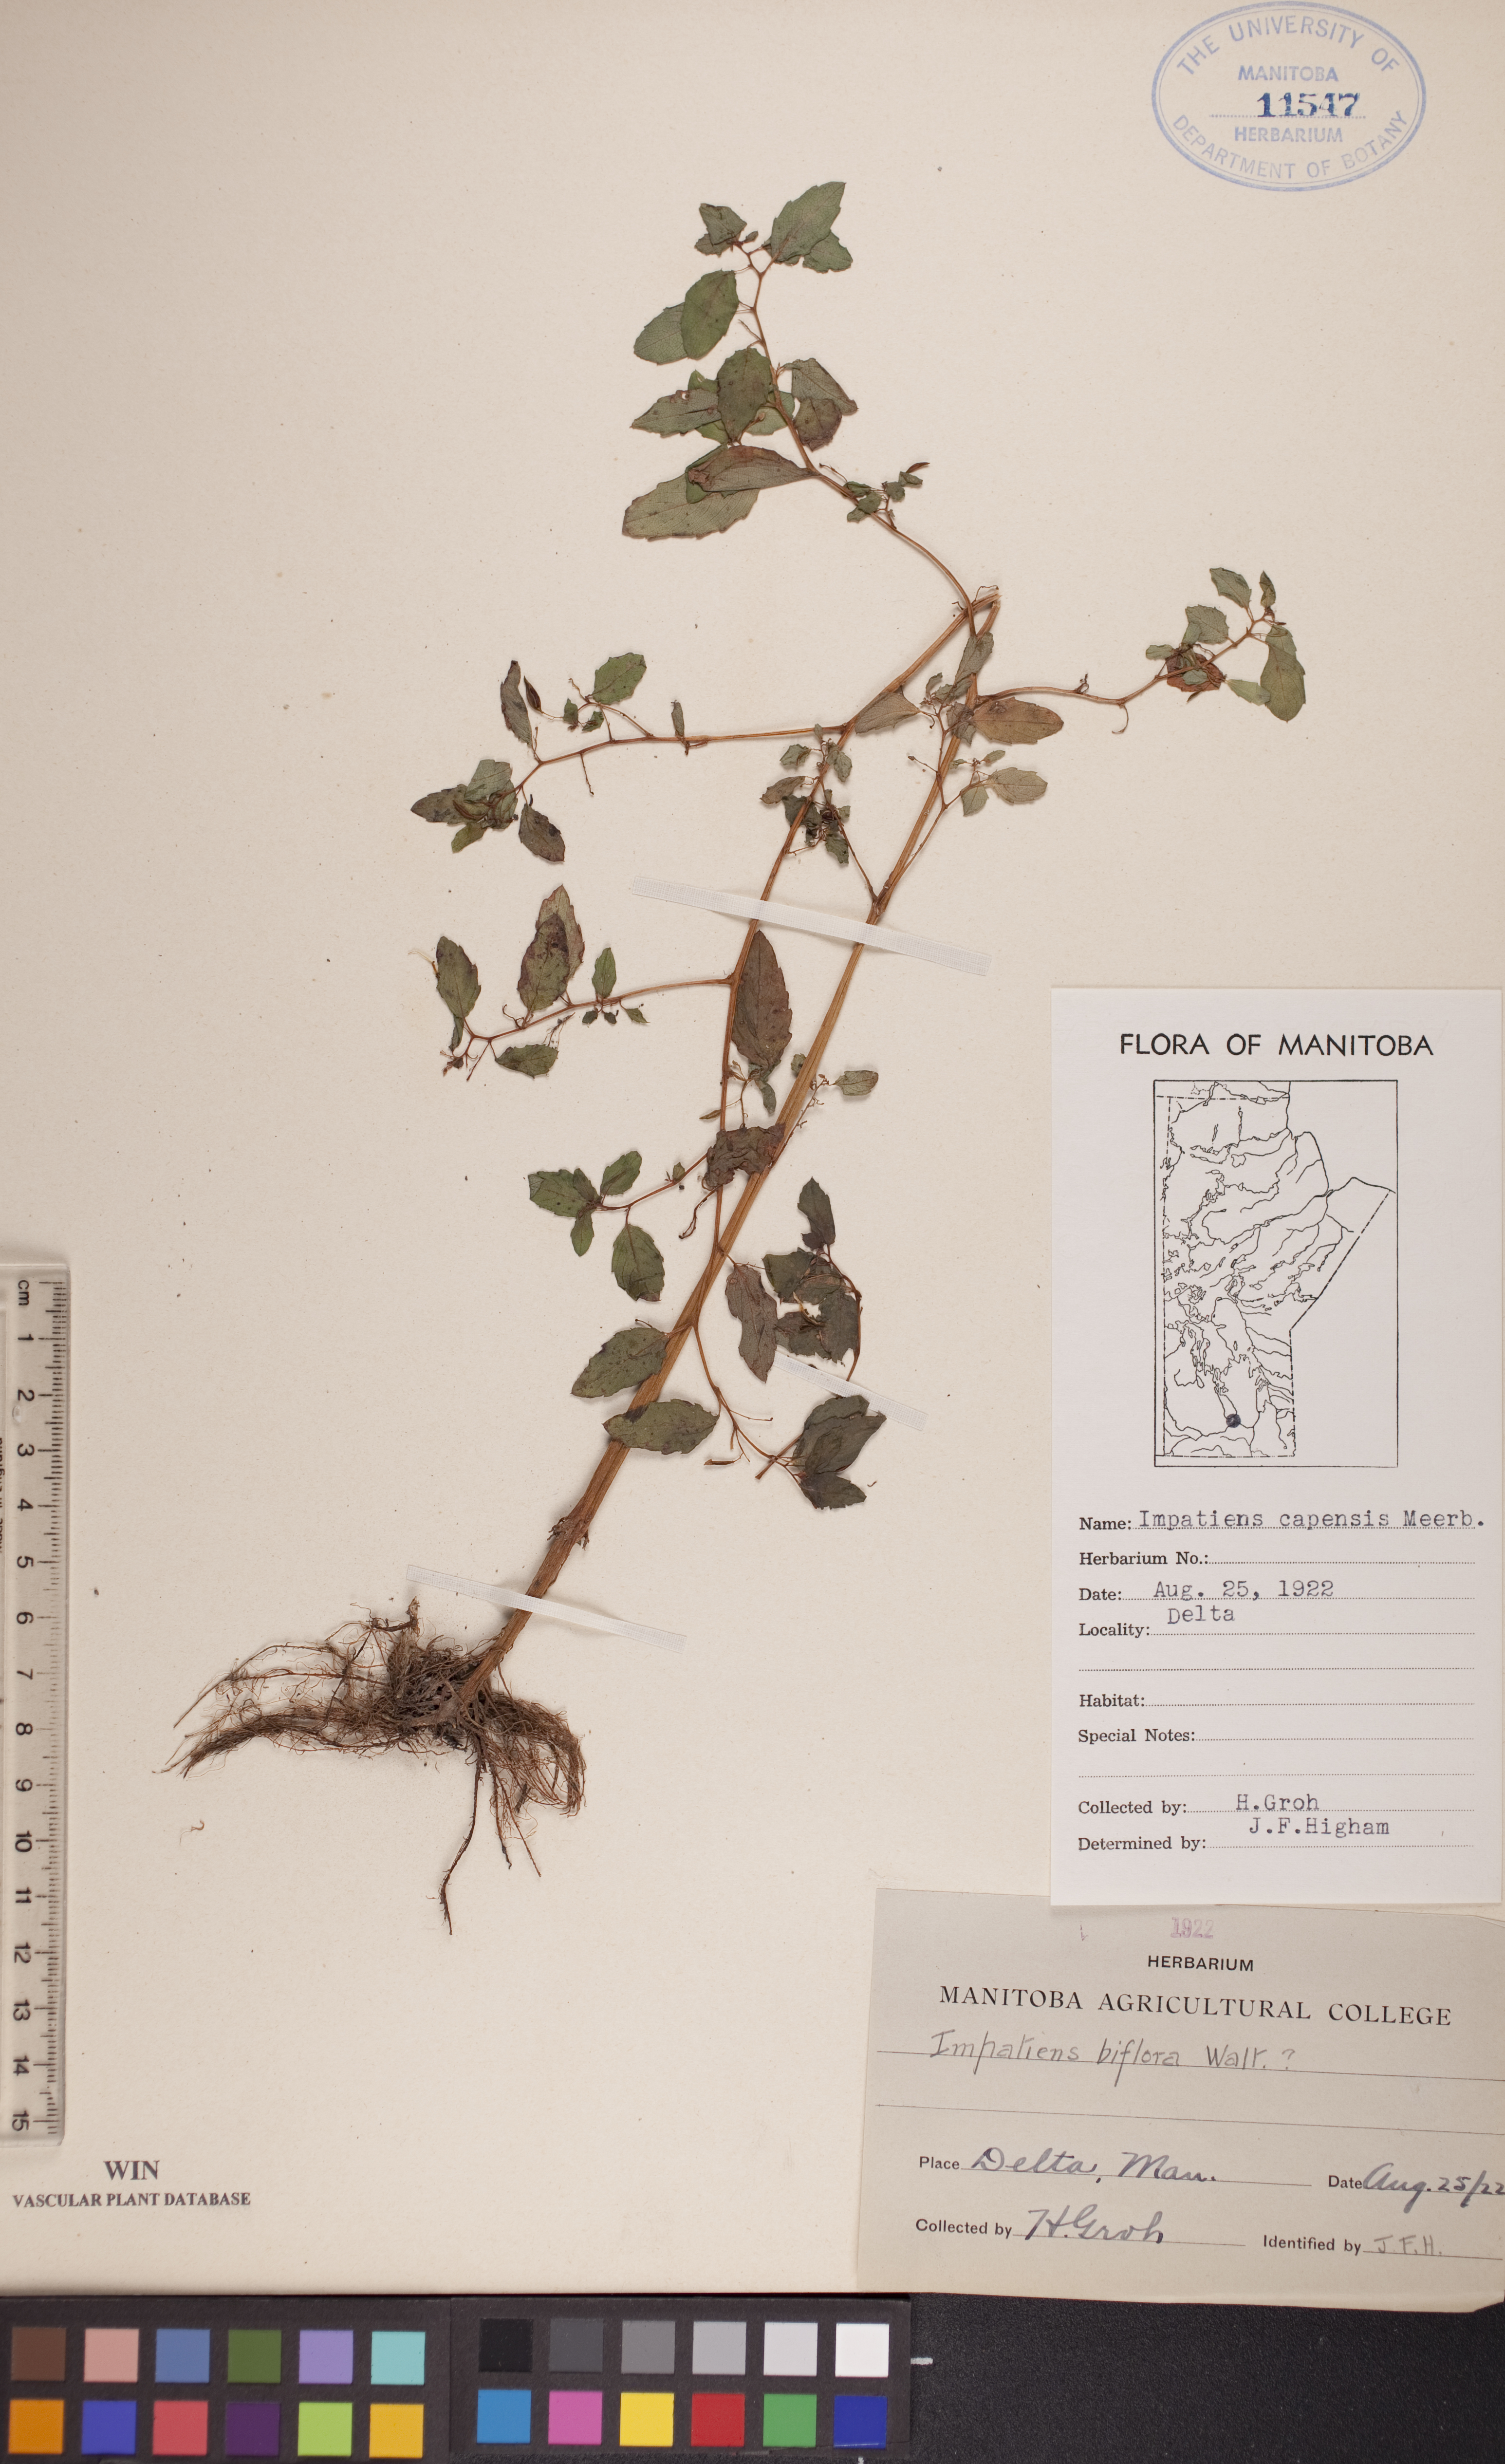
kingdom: Plantae
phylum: Tracheophyta
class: Magnoliopsida
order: Ericales
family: Balsaminaceae
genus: Impatiens
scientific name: Impatiens capensis
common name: Orange balsam
